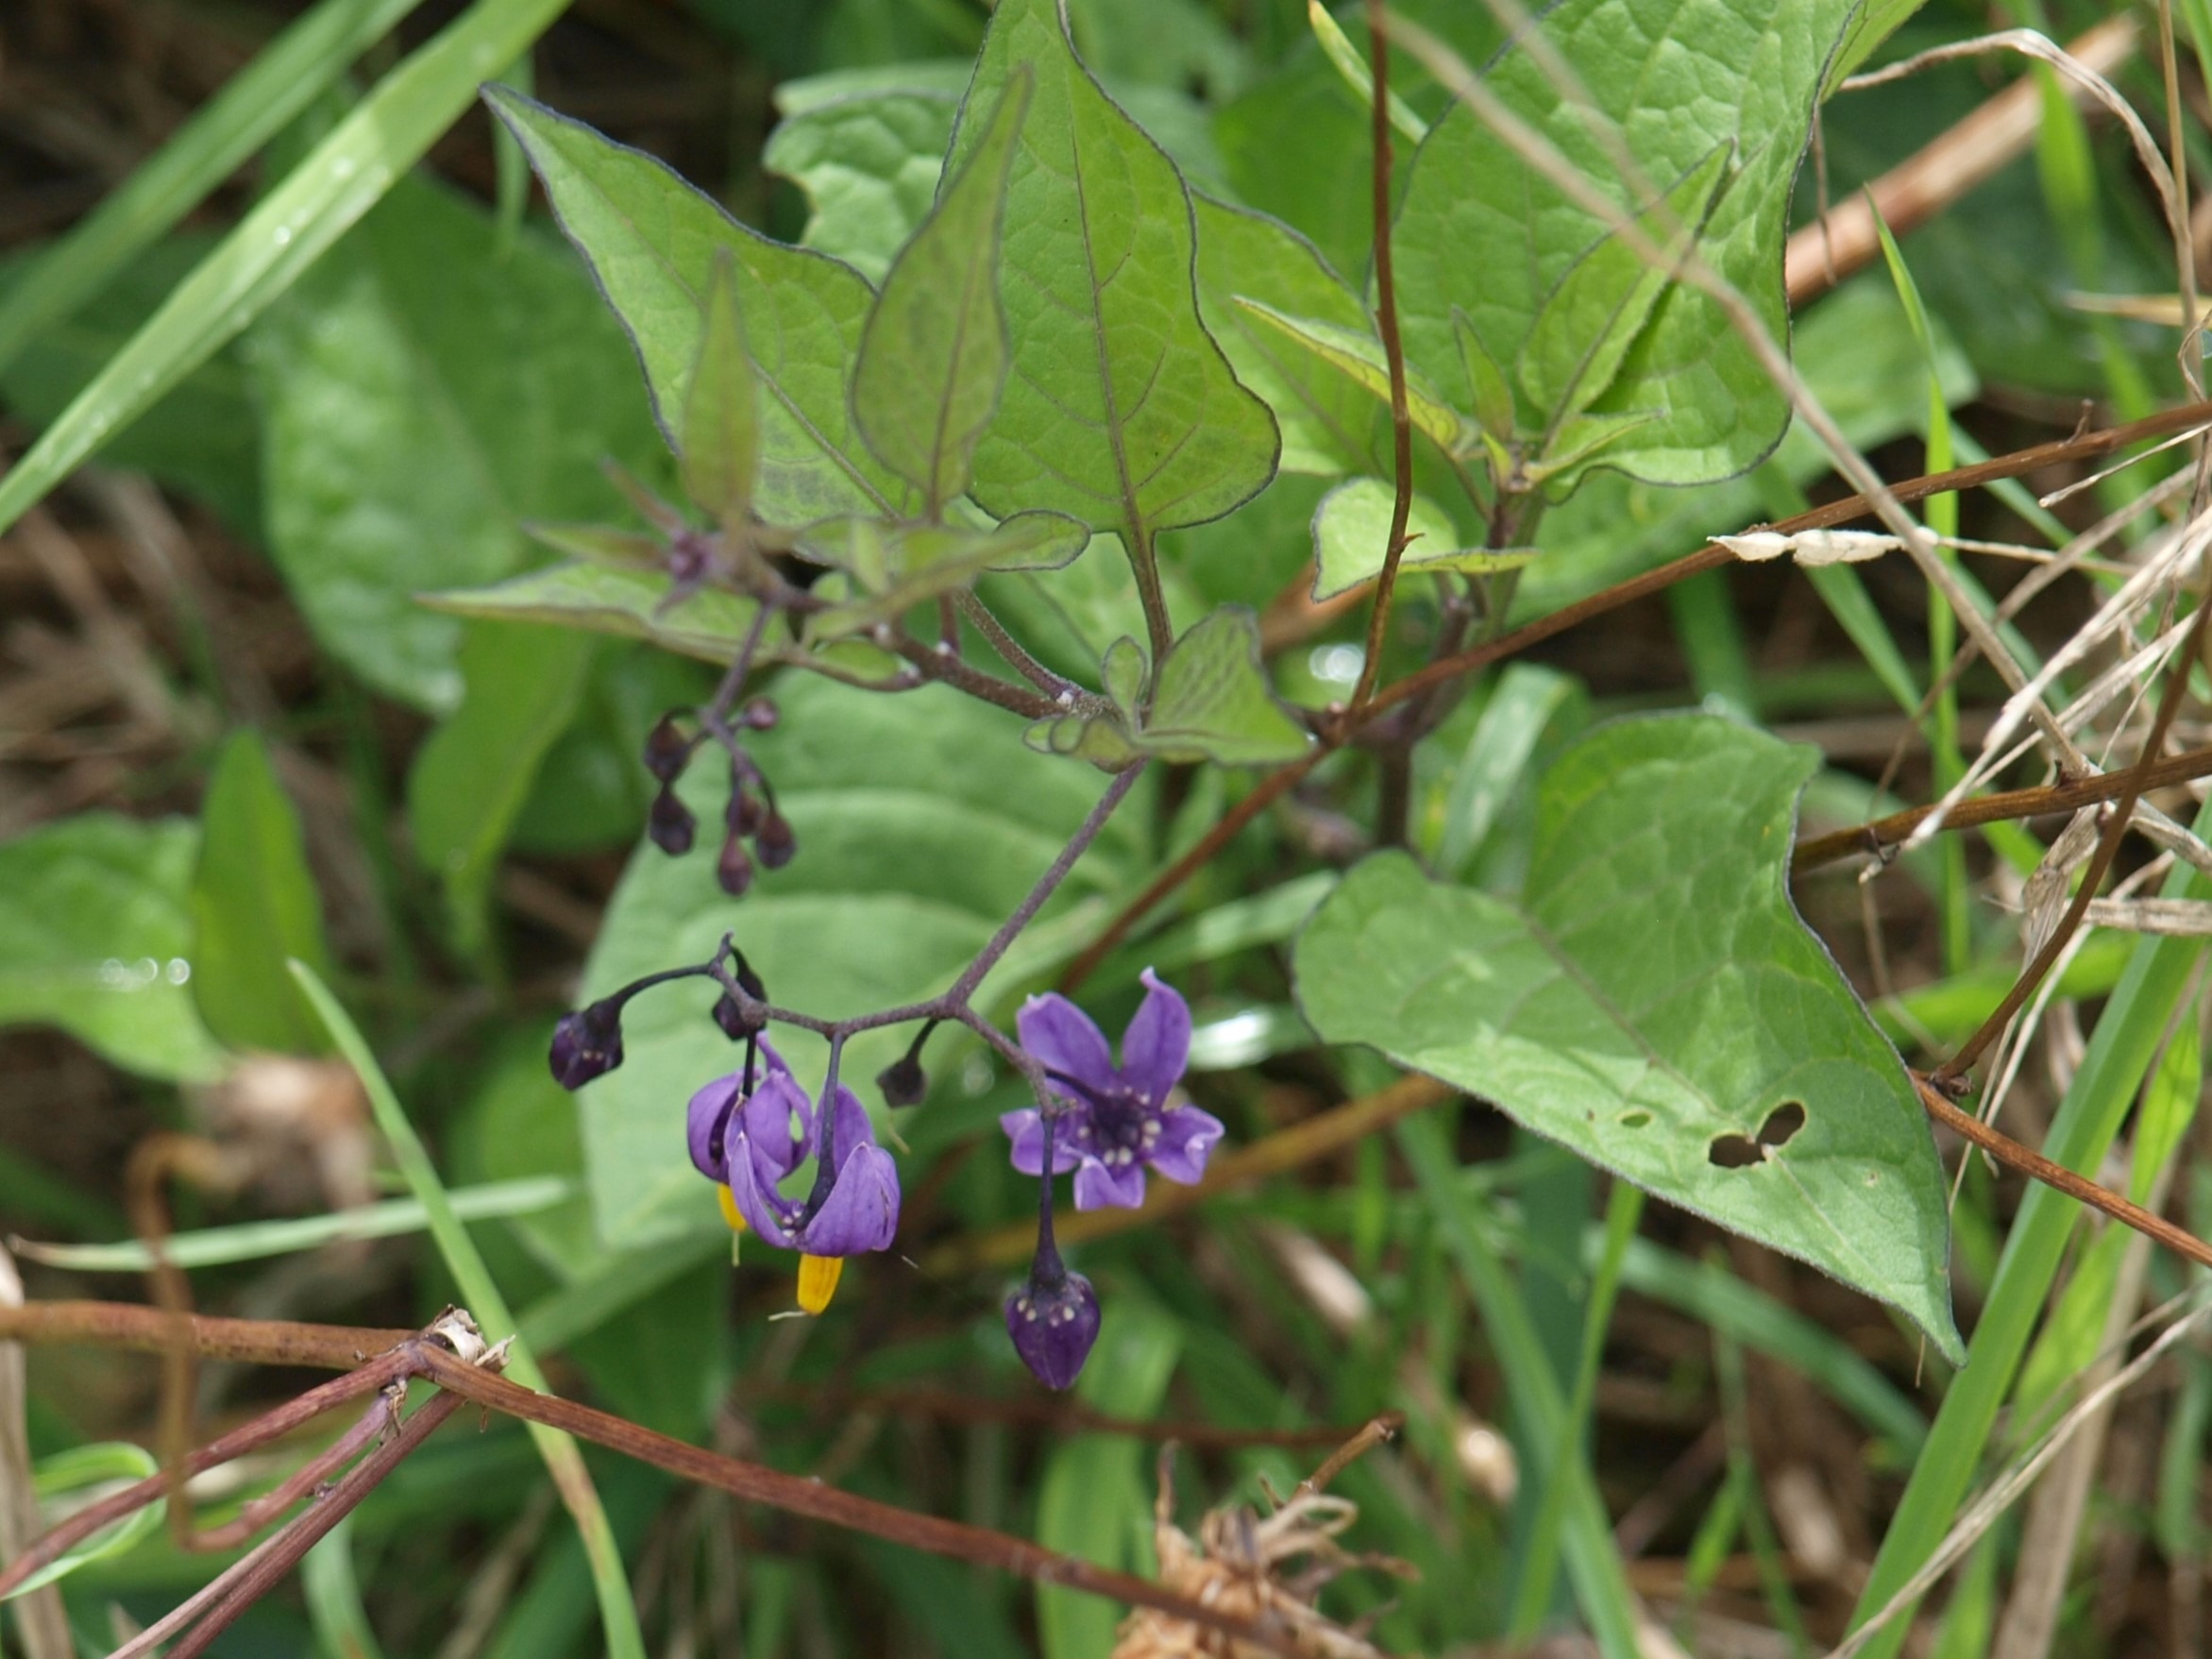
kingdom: Plantae
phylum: Tracheophyta
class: Magnoliopsida
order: Solanales
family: Solanaceae
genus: Solanum
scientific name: Solanum dulcamara
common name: Bittersød natskygge
